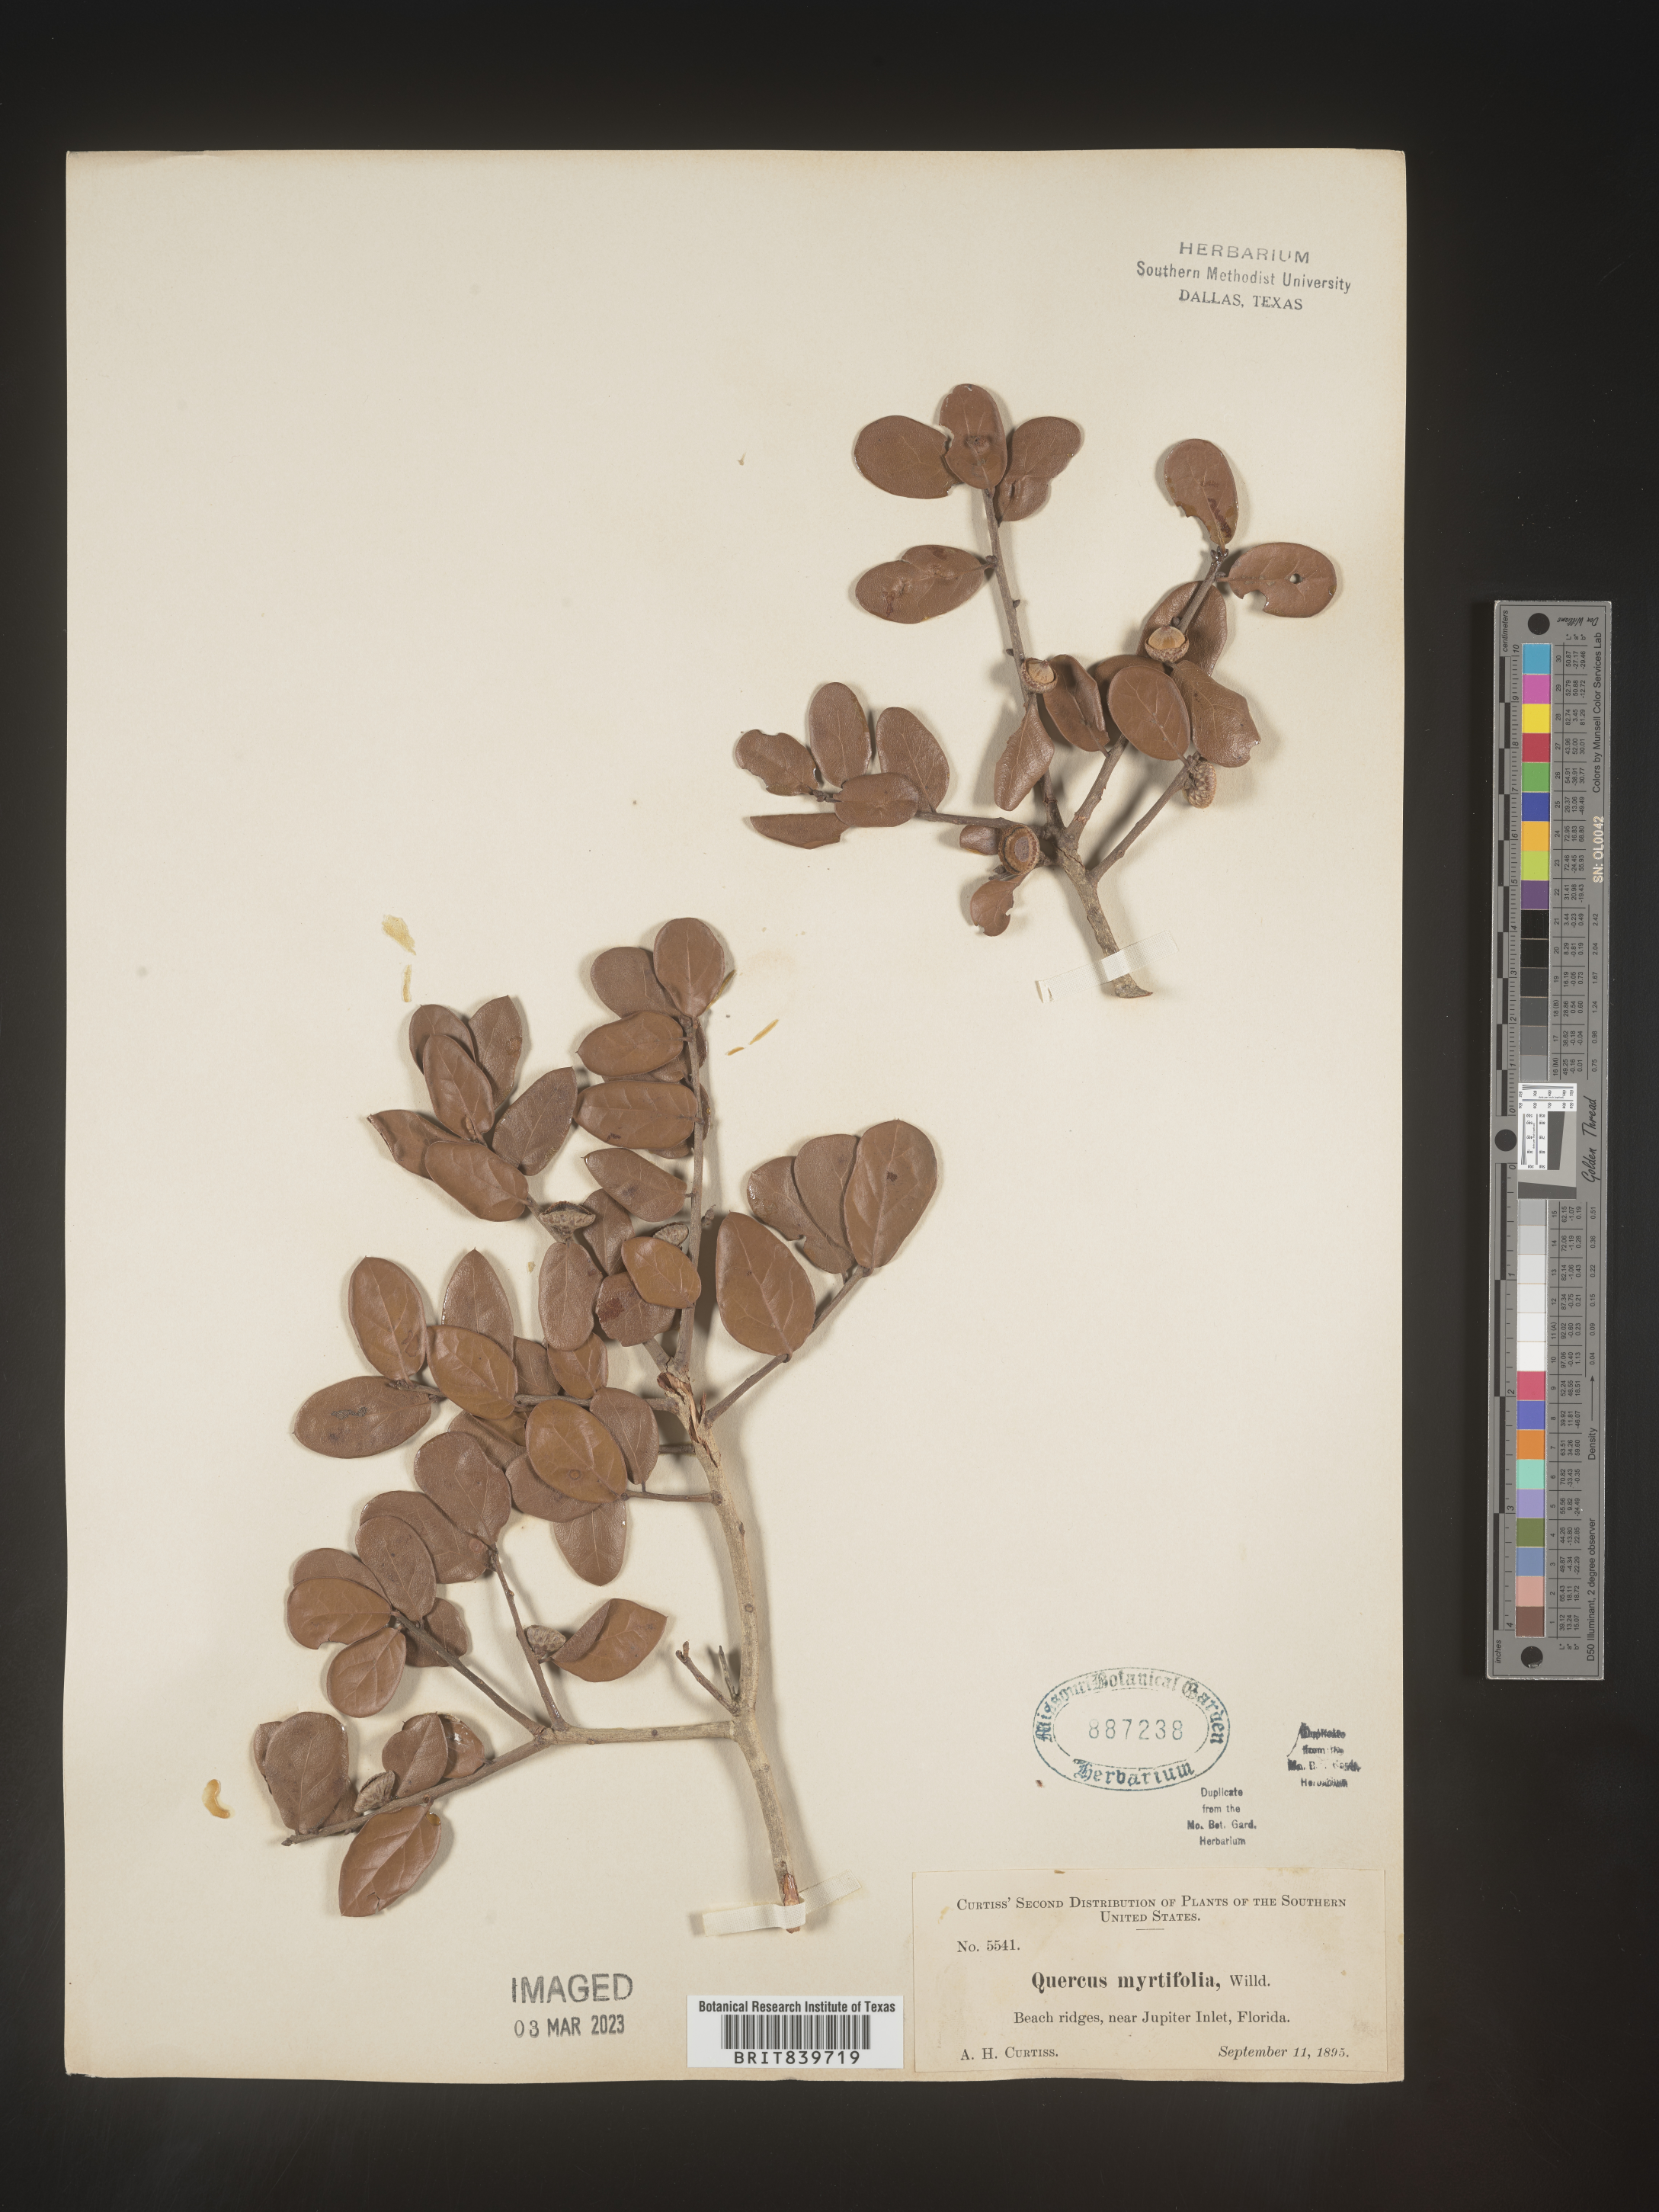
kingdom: Plantae
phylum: Tracheophyta
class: Magnoliopsida
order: Fagales
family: Fagaceae
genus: Quercus
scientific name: Quercus
